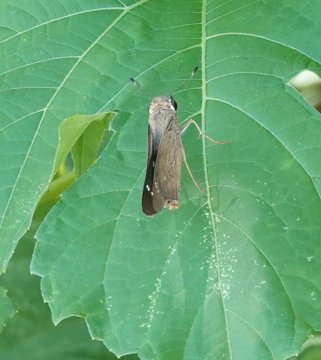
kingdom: Animalia
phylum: Arthropoda
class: Insecta
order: Lepidoptera
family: Hesperiidae
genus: Calpodes
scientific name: Calpodes ethlius
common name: Brazilian Skipper
